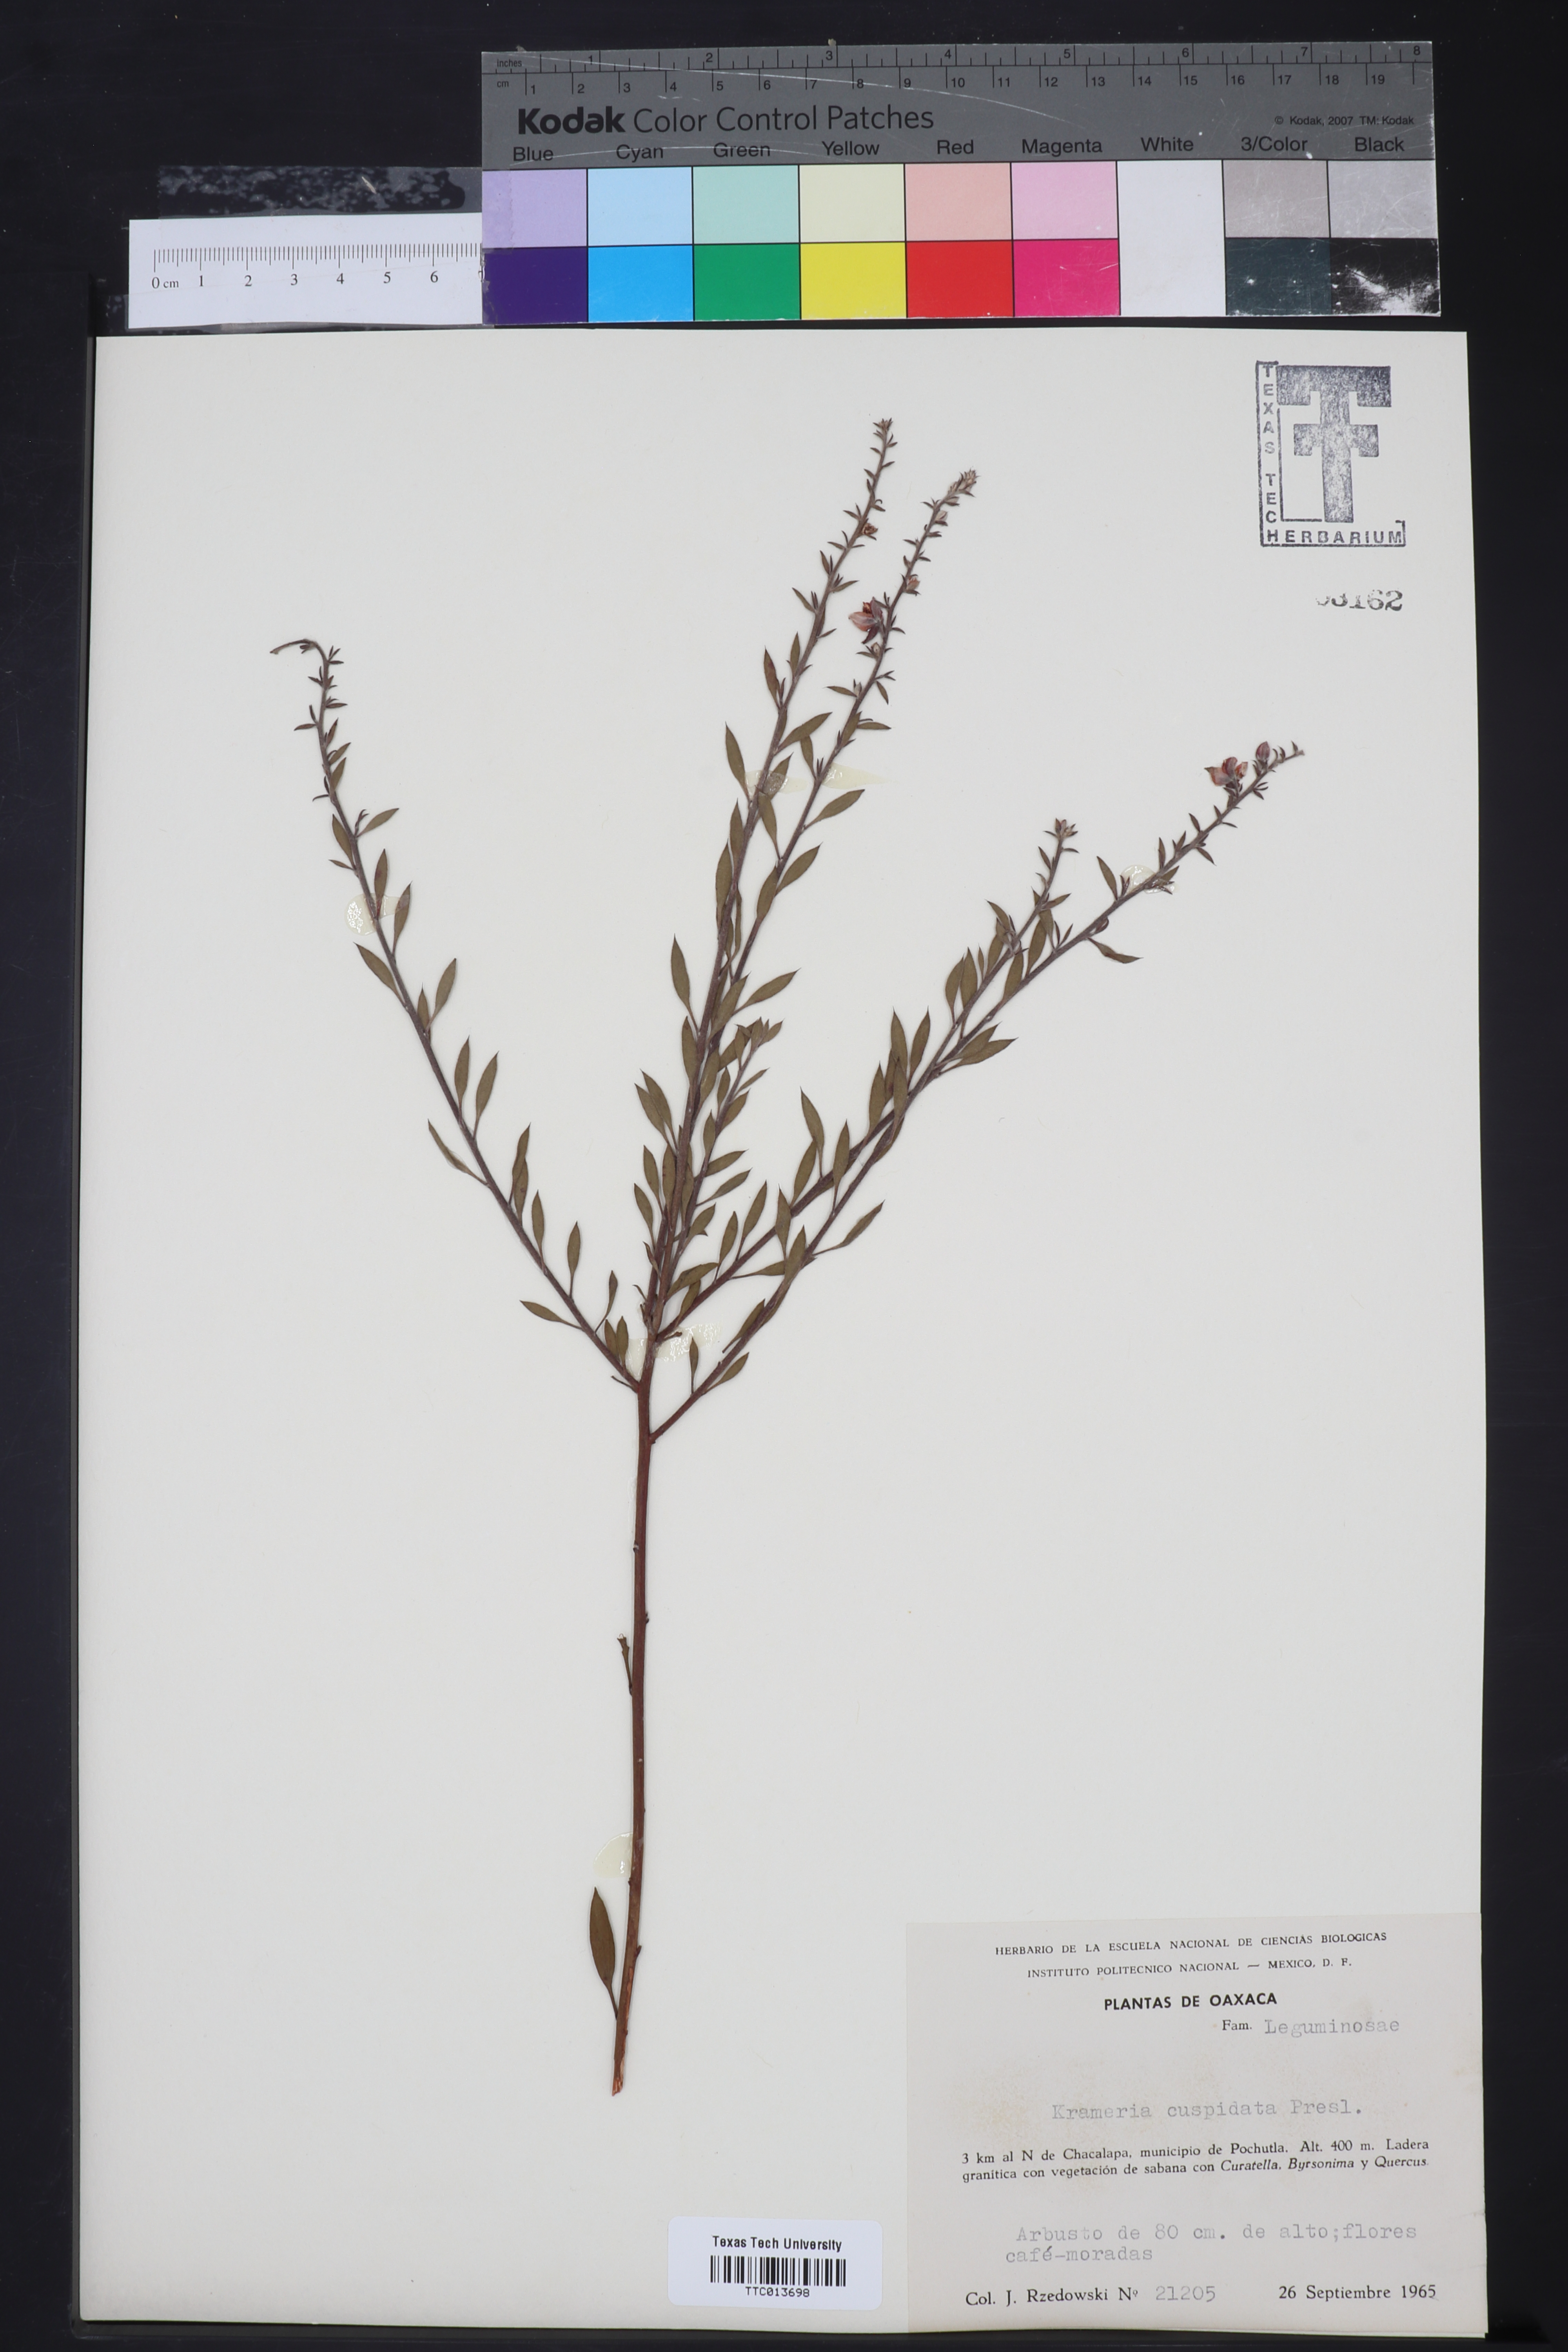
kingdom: Plantae
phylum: Tracheophyta
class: Magnoliopsida
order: Zygophyllales
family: Krameriaceae
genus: Krameria
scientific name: Krameria ixine
